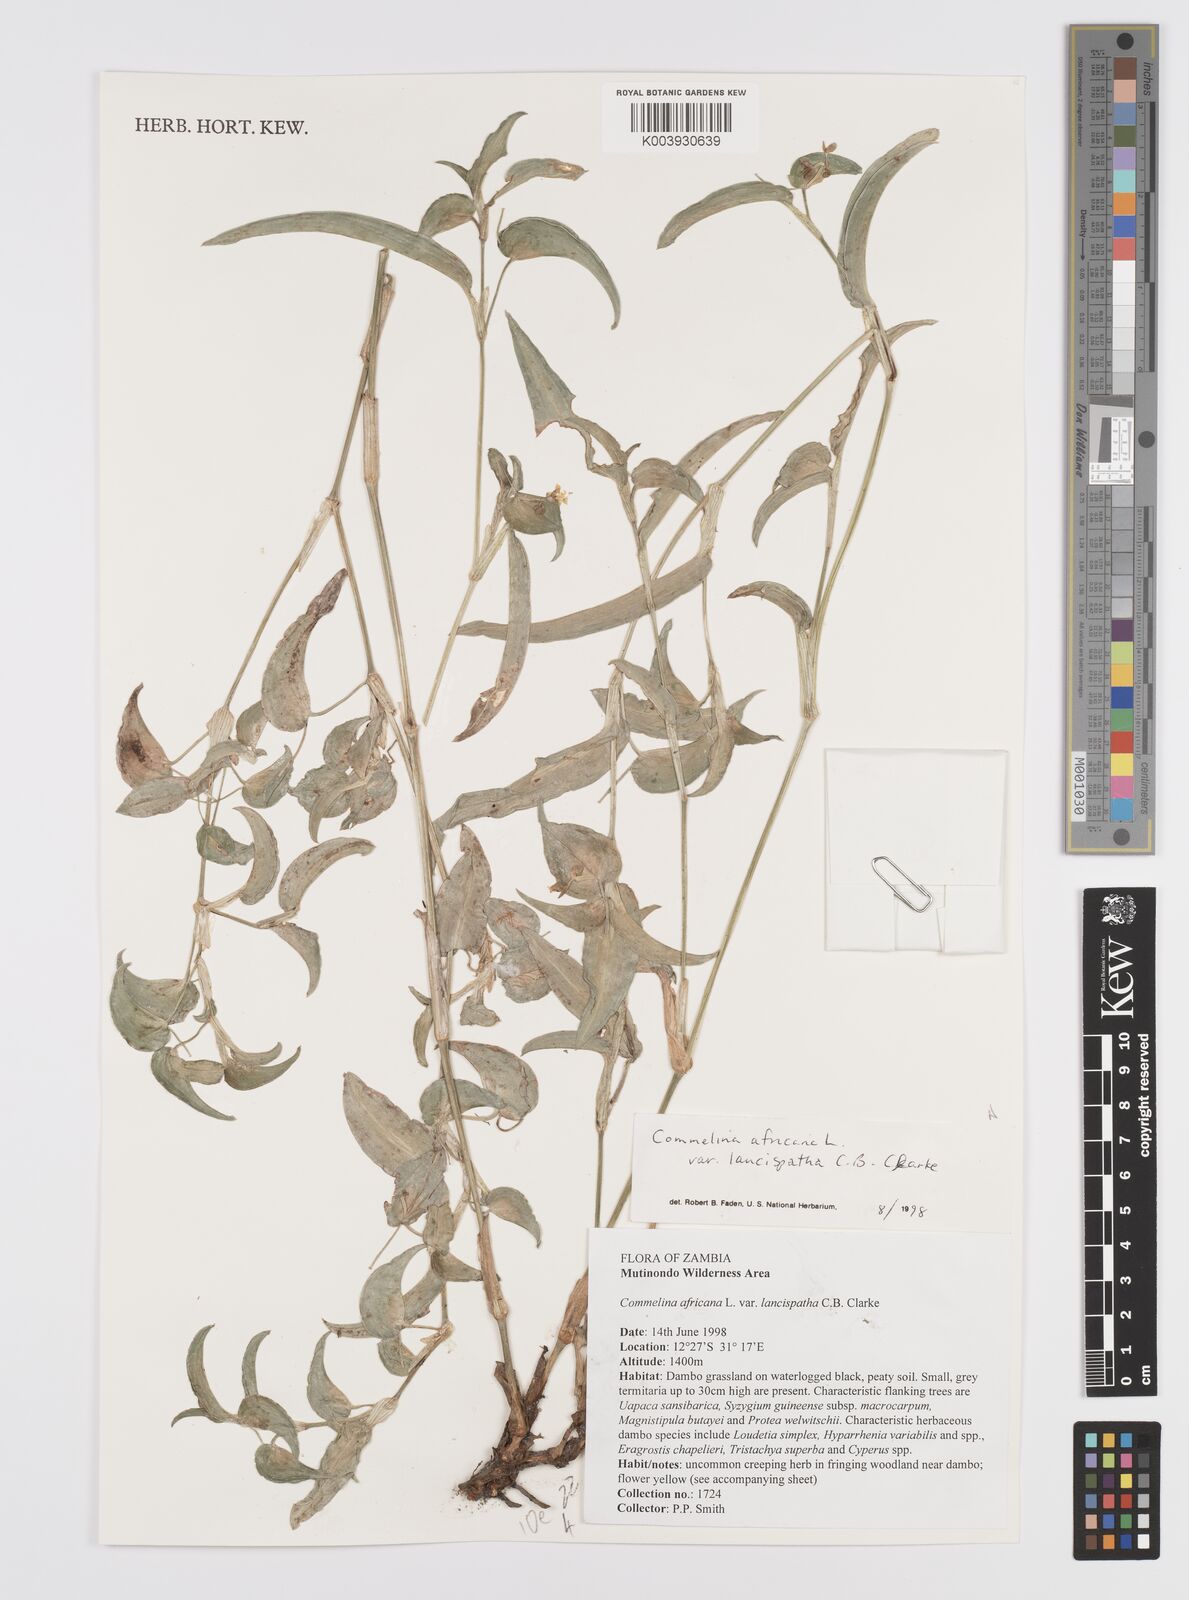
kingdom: Plantae
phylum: Tracheophyta
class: Liliopsida
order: Commelinales
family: Commelinaceae
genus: Commelina
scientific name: Commelina africana
